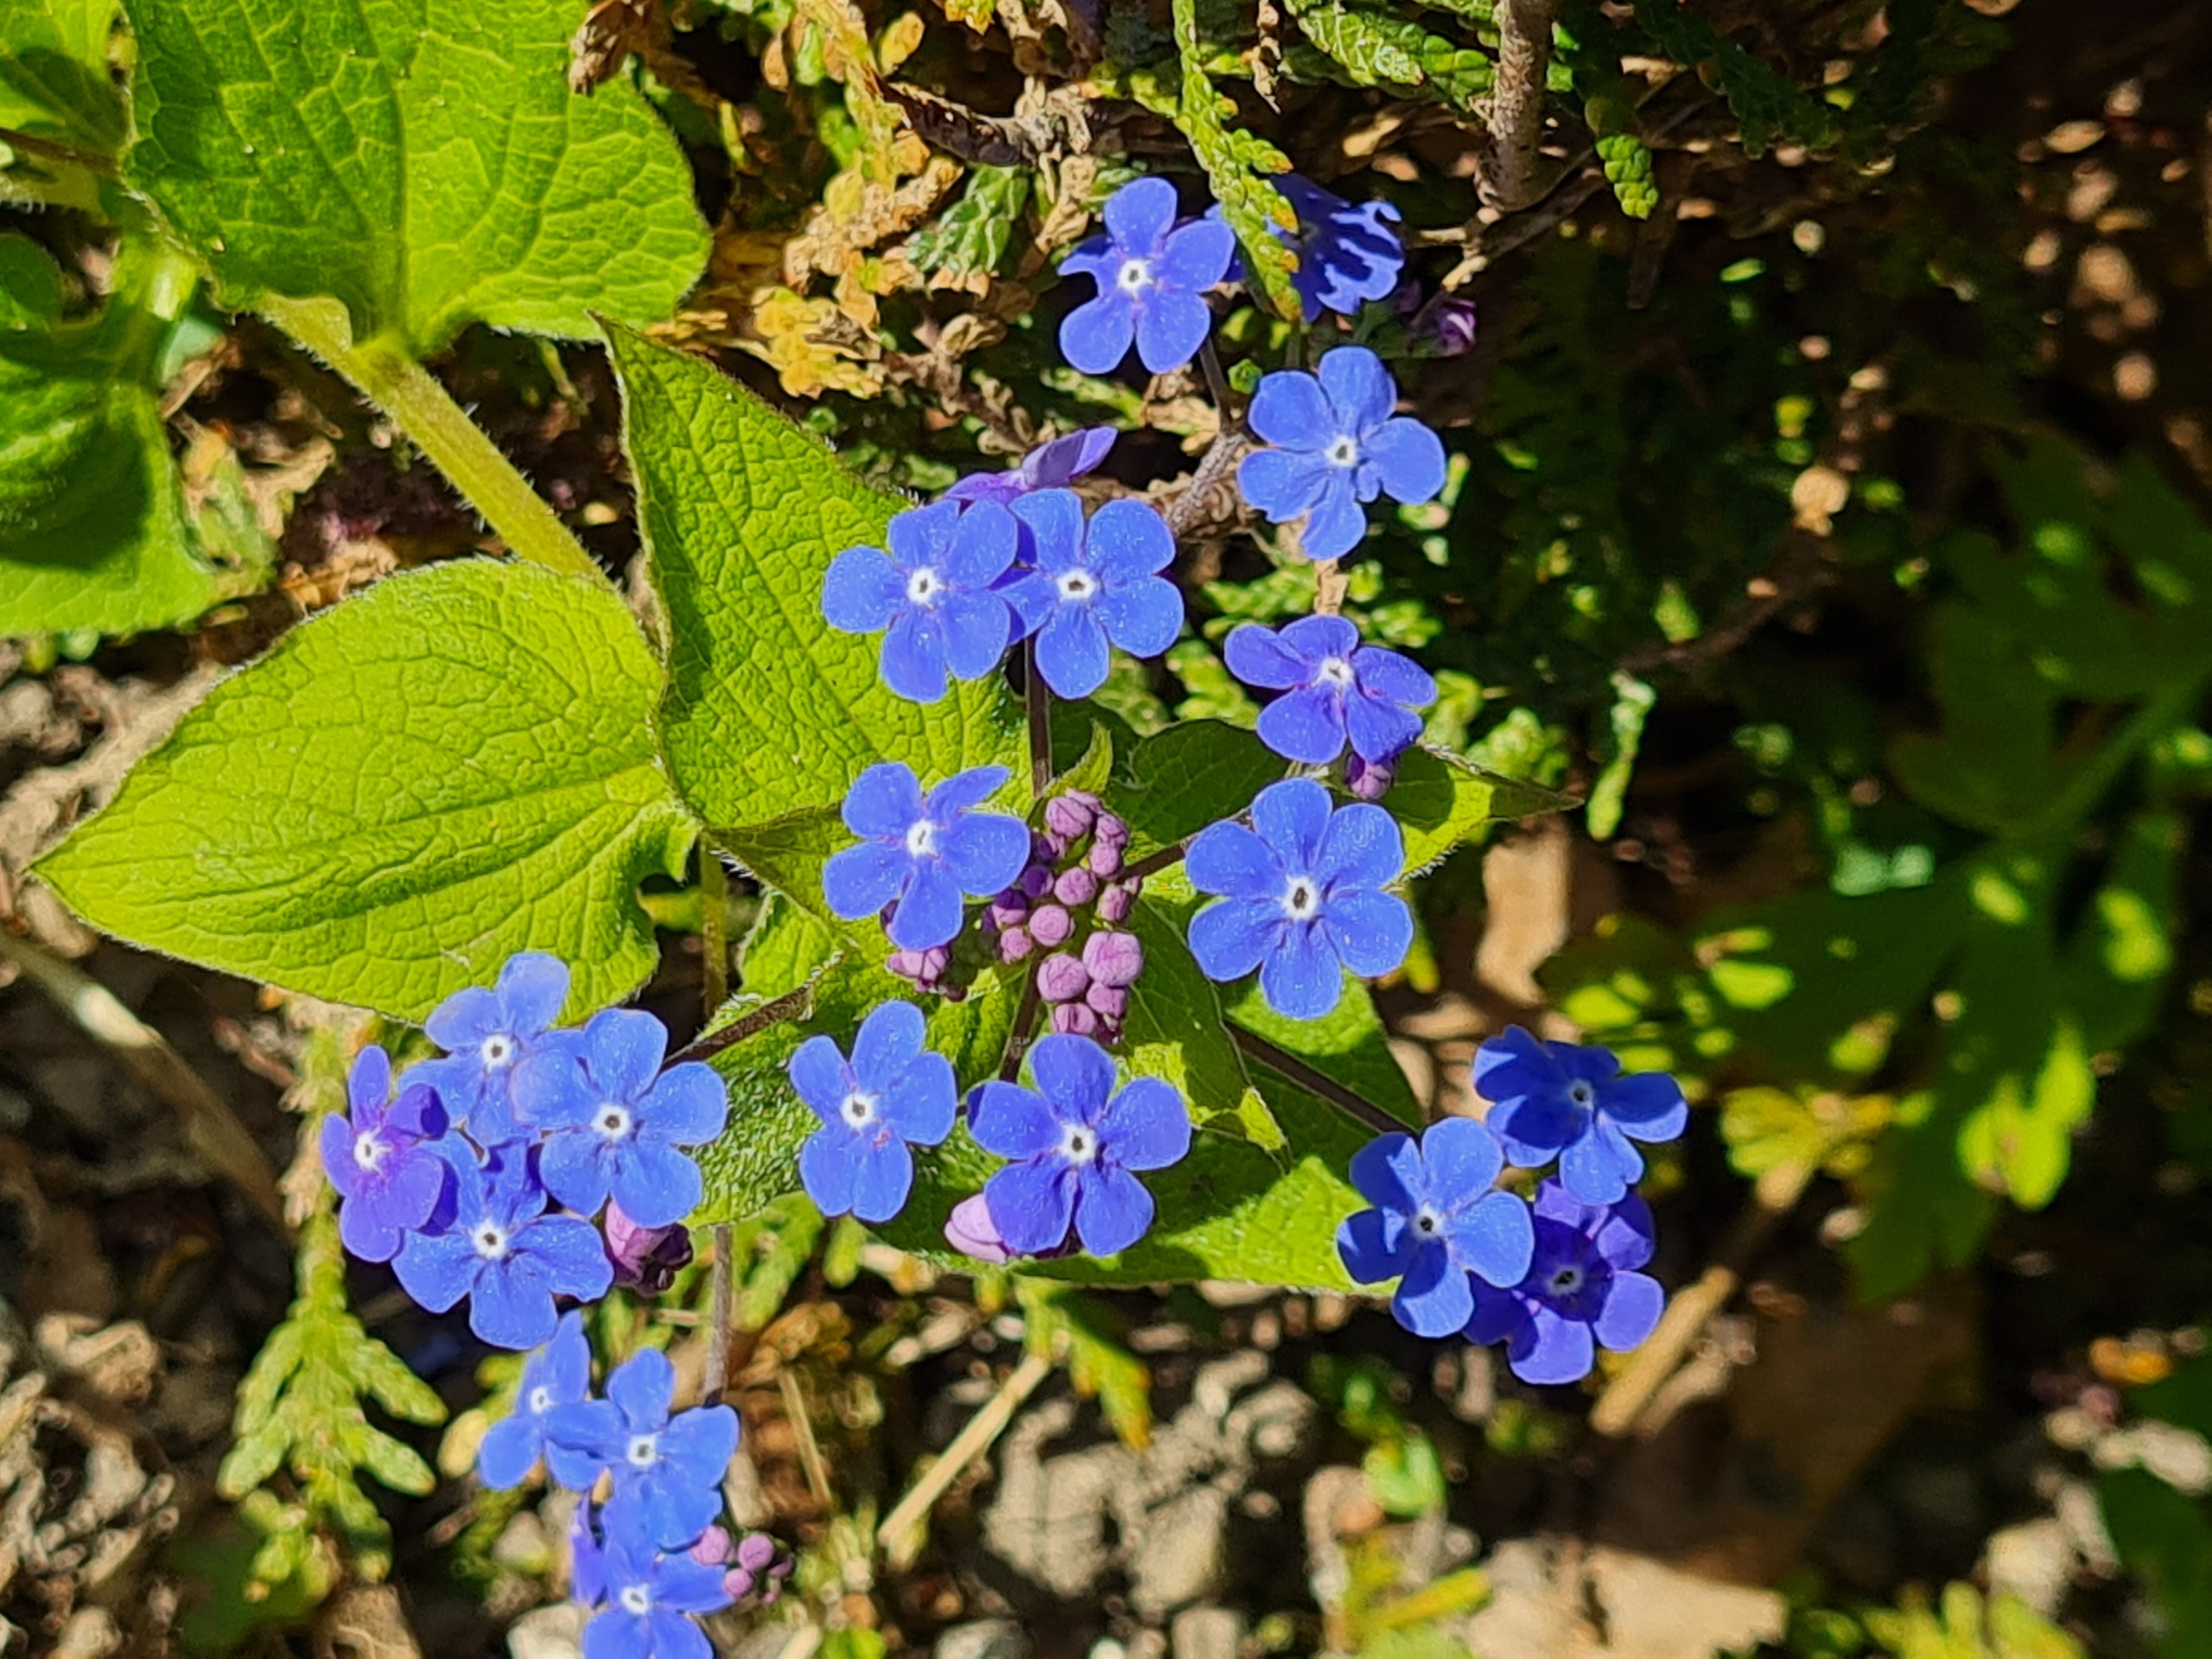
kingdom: Plantae
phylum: Tracheophyta
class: Magnoliopsida
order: Boraginales
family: Boraginaceae
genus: Brunnera
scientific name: Brunnera macrophylla
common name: Kærmindesøster
